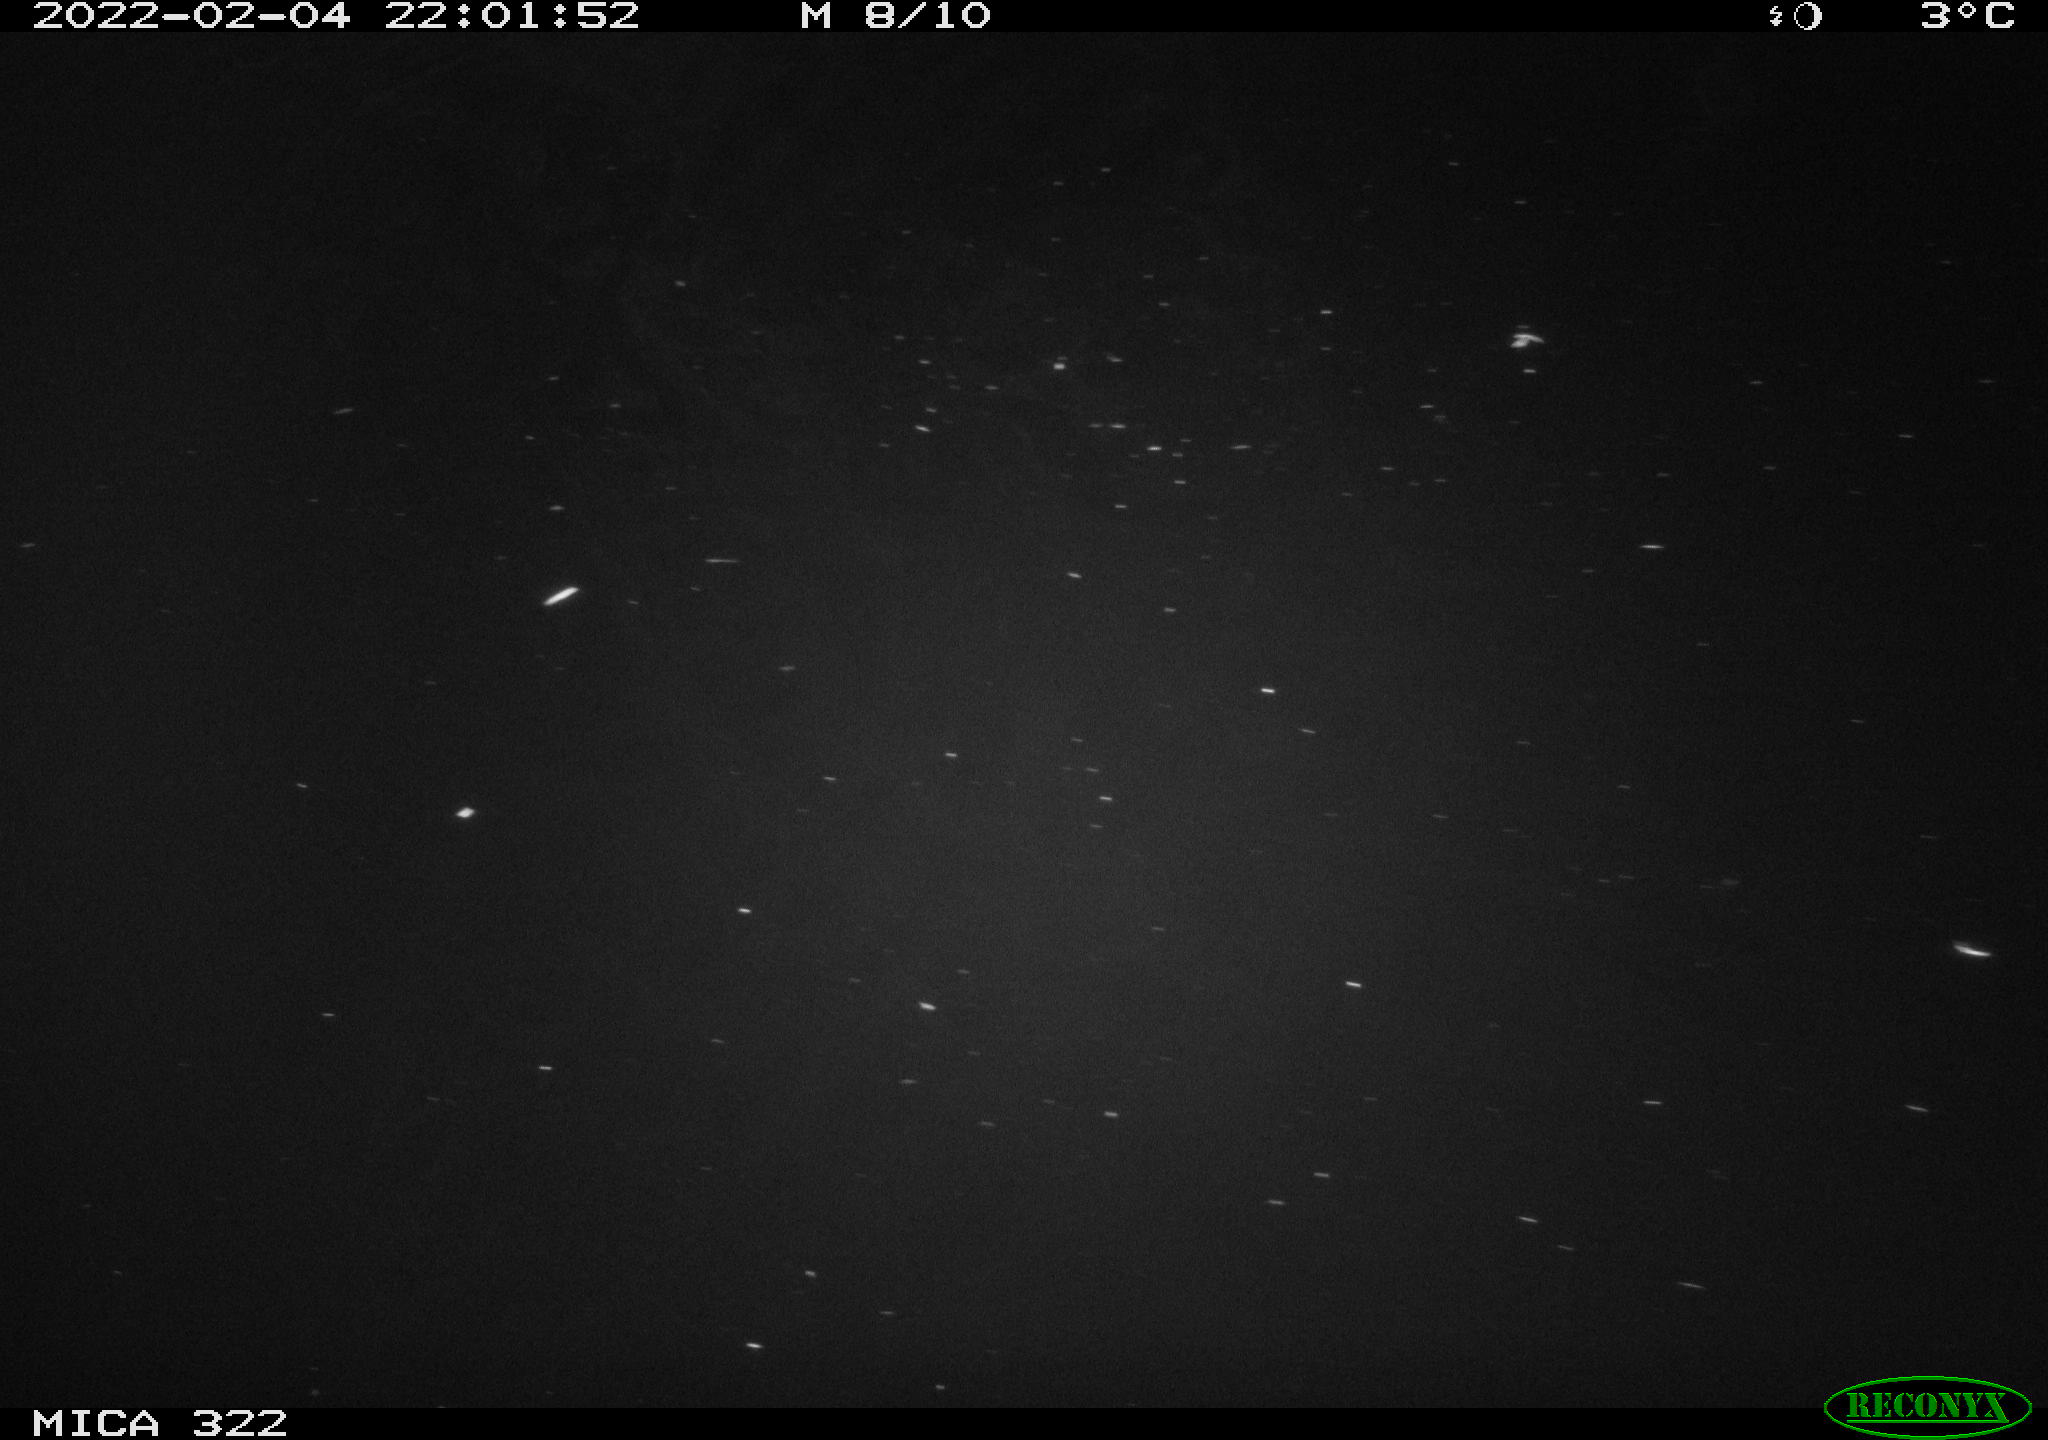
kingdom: Animalia
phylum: Chordata
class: Aves
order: Anseriformes
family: Anatidae
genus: Mareca
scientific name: Mareca strepera
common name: Gadwall
